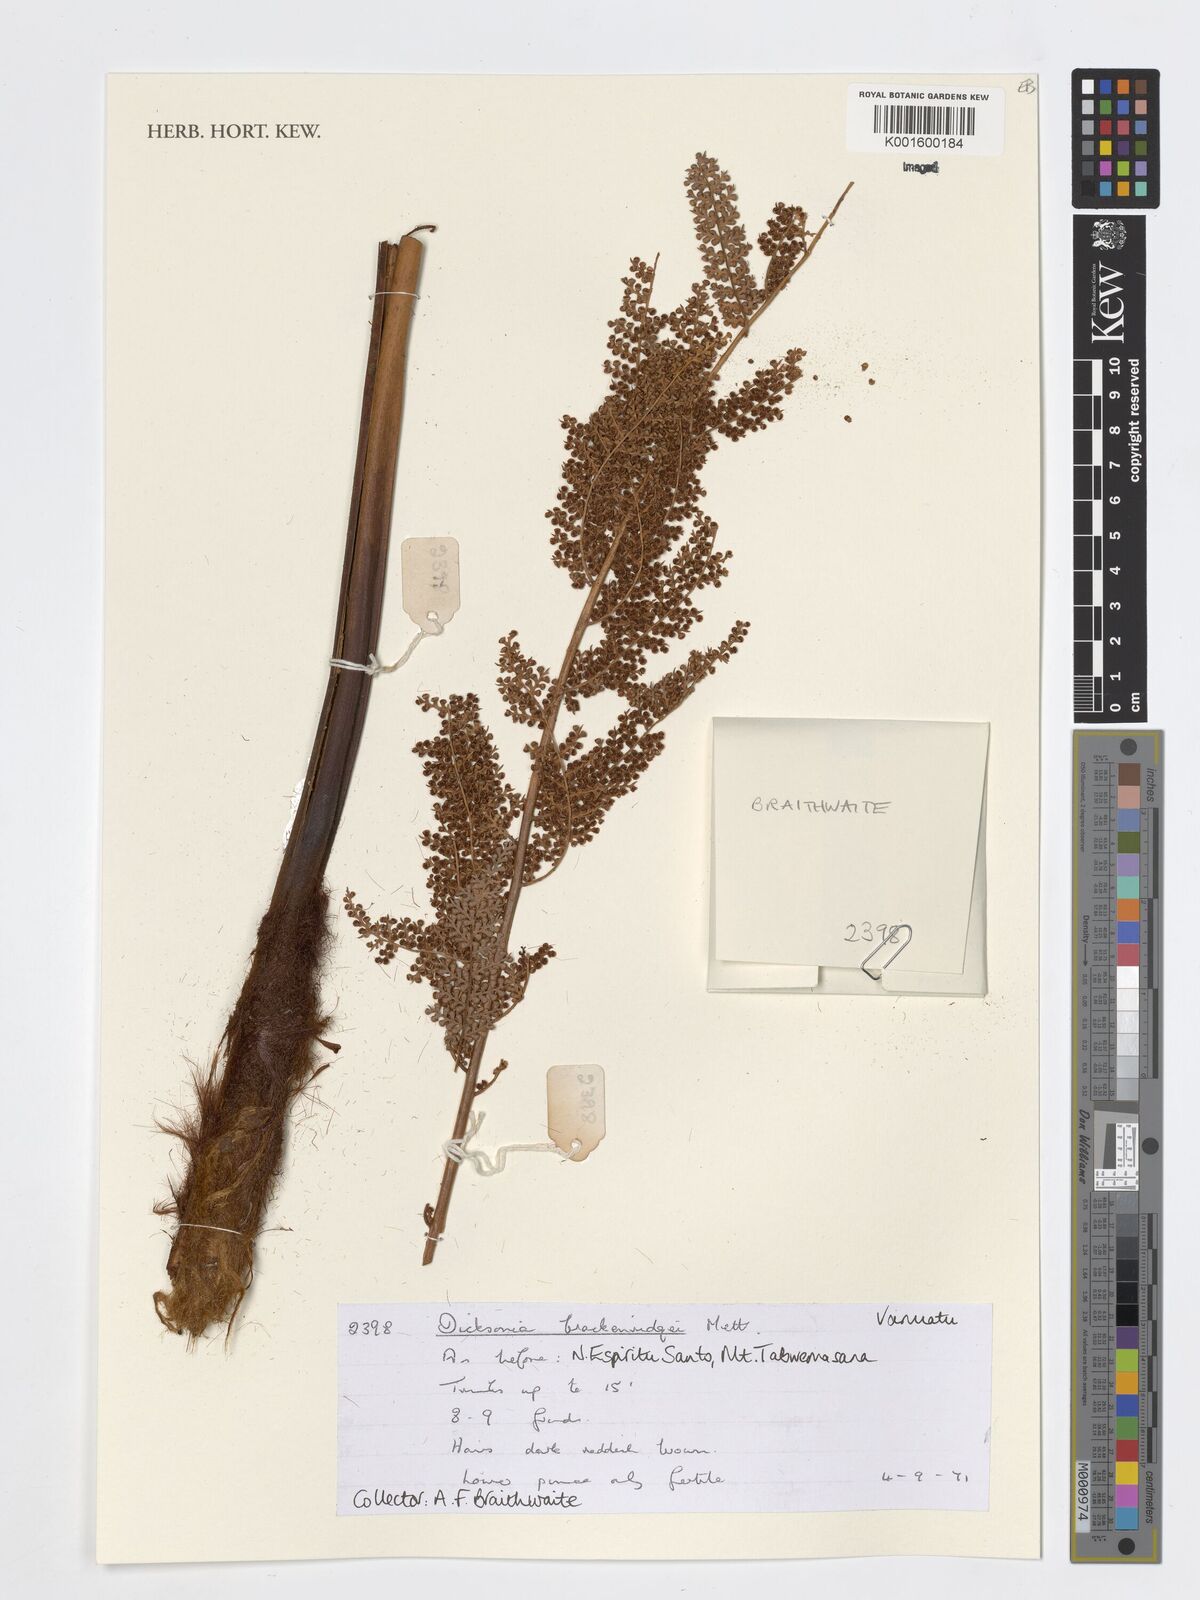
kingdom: Plantae
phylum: Tracheophyta
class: Polypodiopsida
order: Cyatheales
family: Dicksoniaceae
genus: Dicksonia
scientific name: Dicksonia brackenridgei
